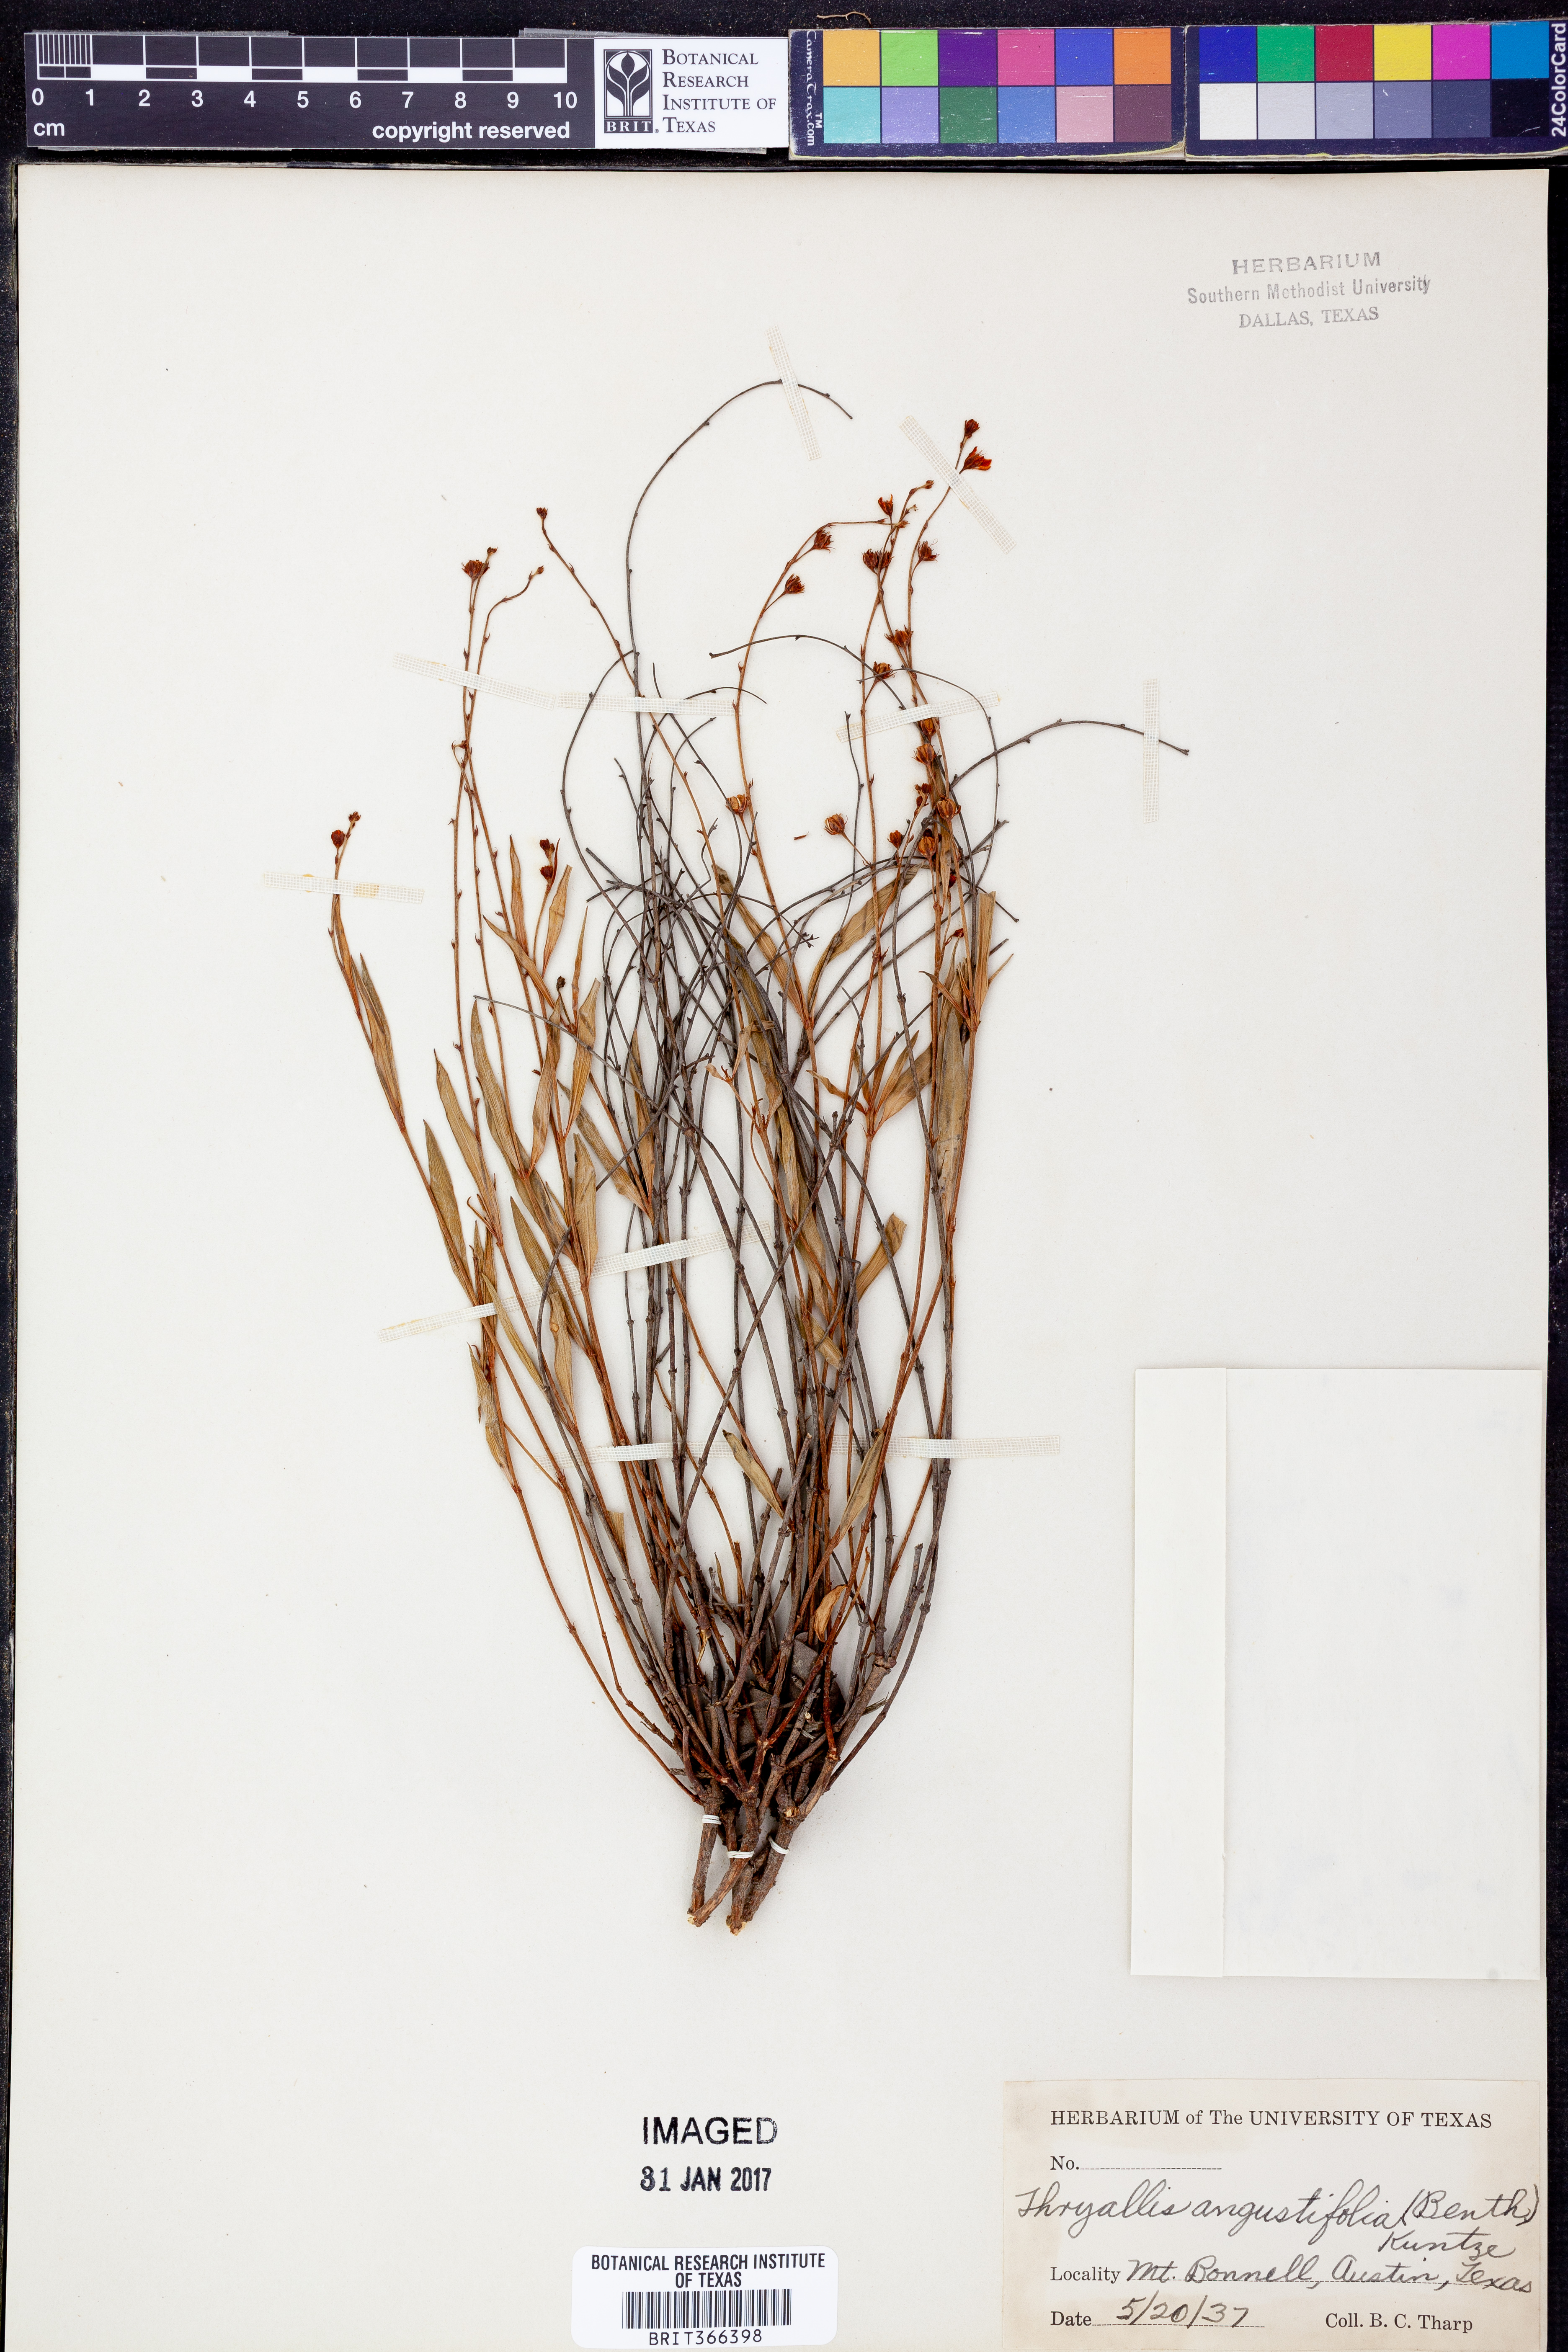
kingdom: Plantae
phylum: Tracheophyta
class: Magnoliopsida
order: Malpighiales
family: Malpighiaceae
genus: Galphimia
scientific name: Galphimia angustifolia
